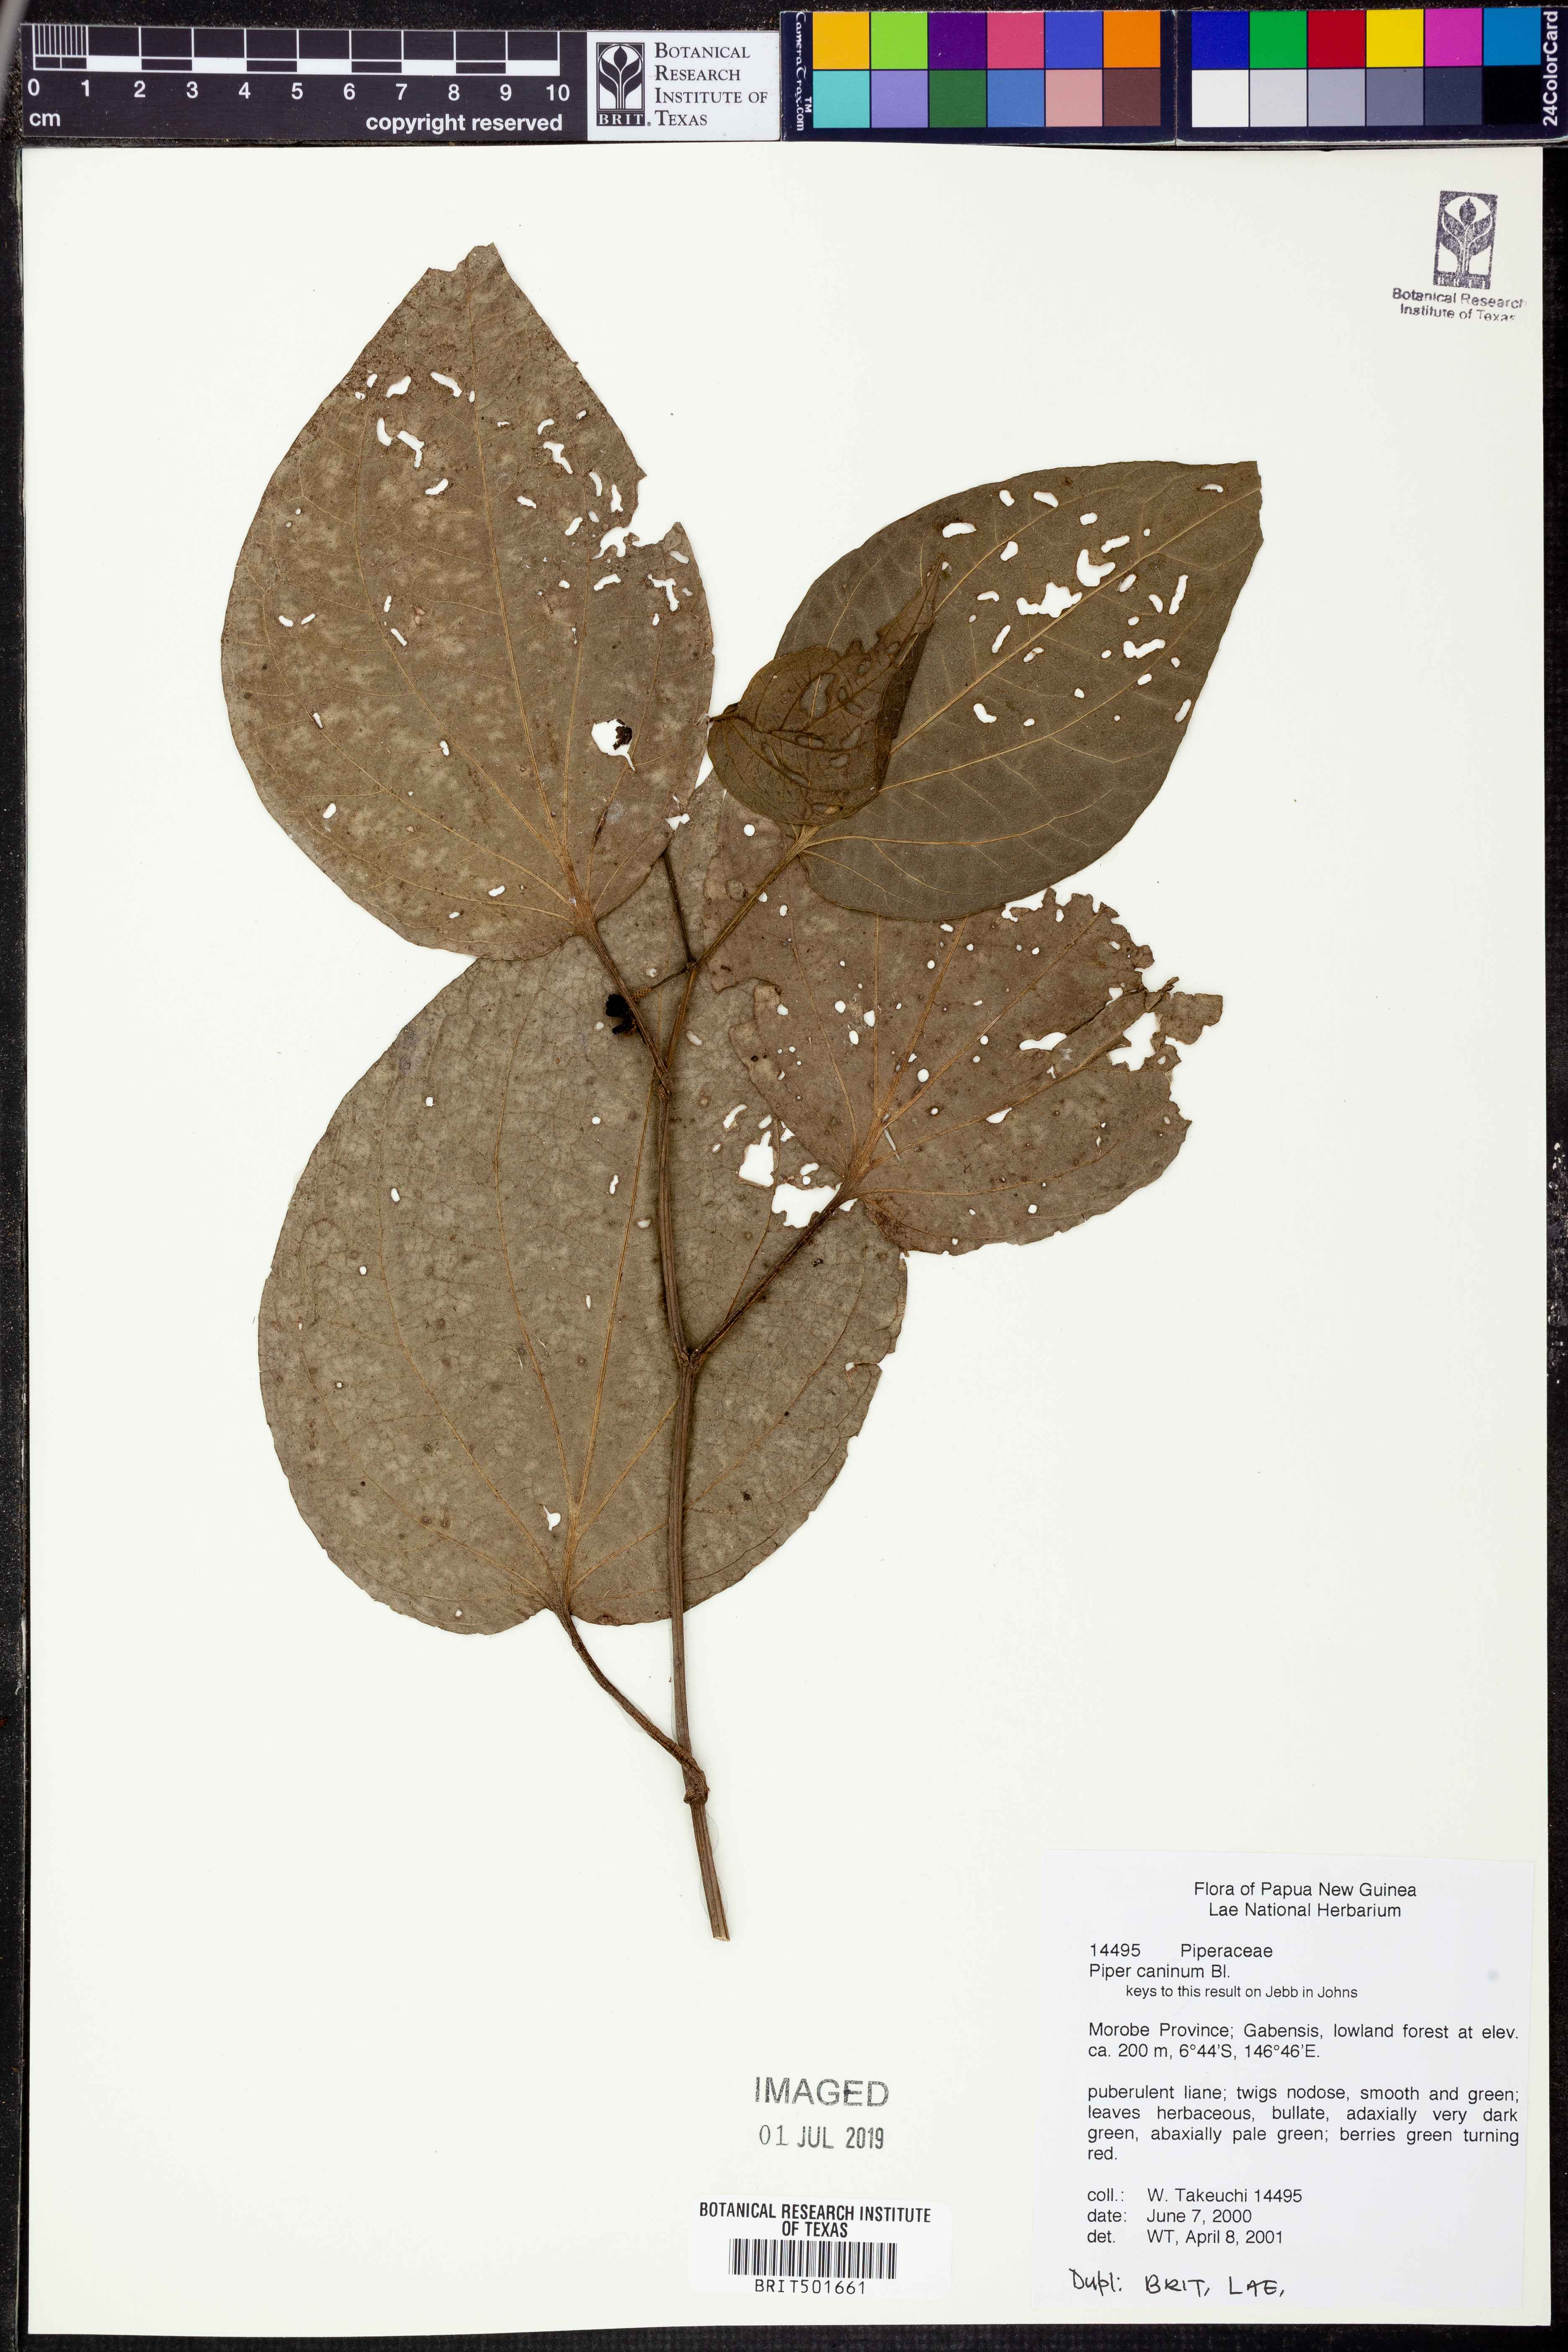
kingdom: Plantae
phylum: Tracheophyta
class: Magnoliopsida
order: Piperales
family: Piperaceae
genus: Piper
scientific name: Piper lanatum
